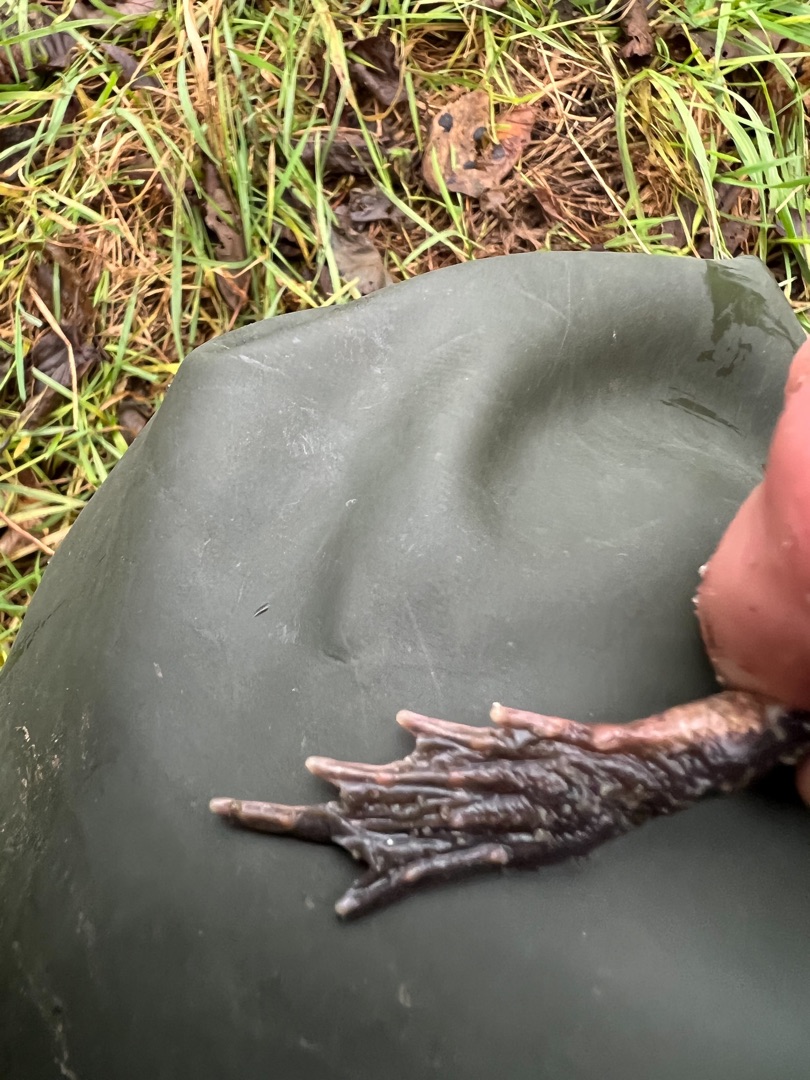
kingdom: Animalia
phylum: Chordata
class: Amphibia
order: Anura
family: Ranidae
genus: Rana
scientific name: Rana temporaria
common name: Butsnudet frø
